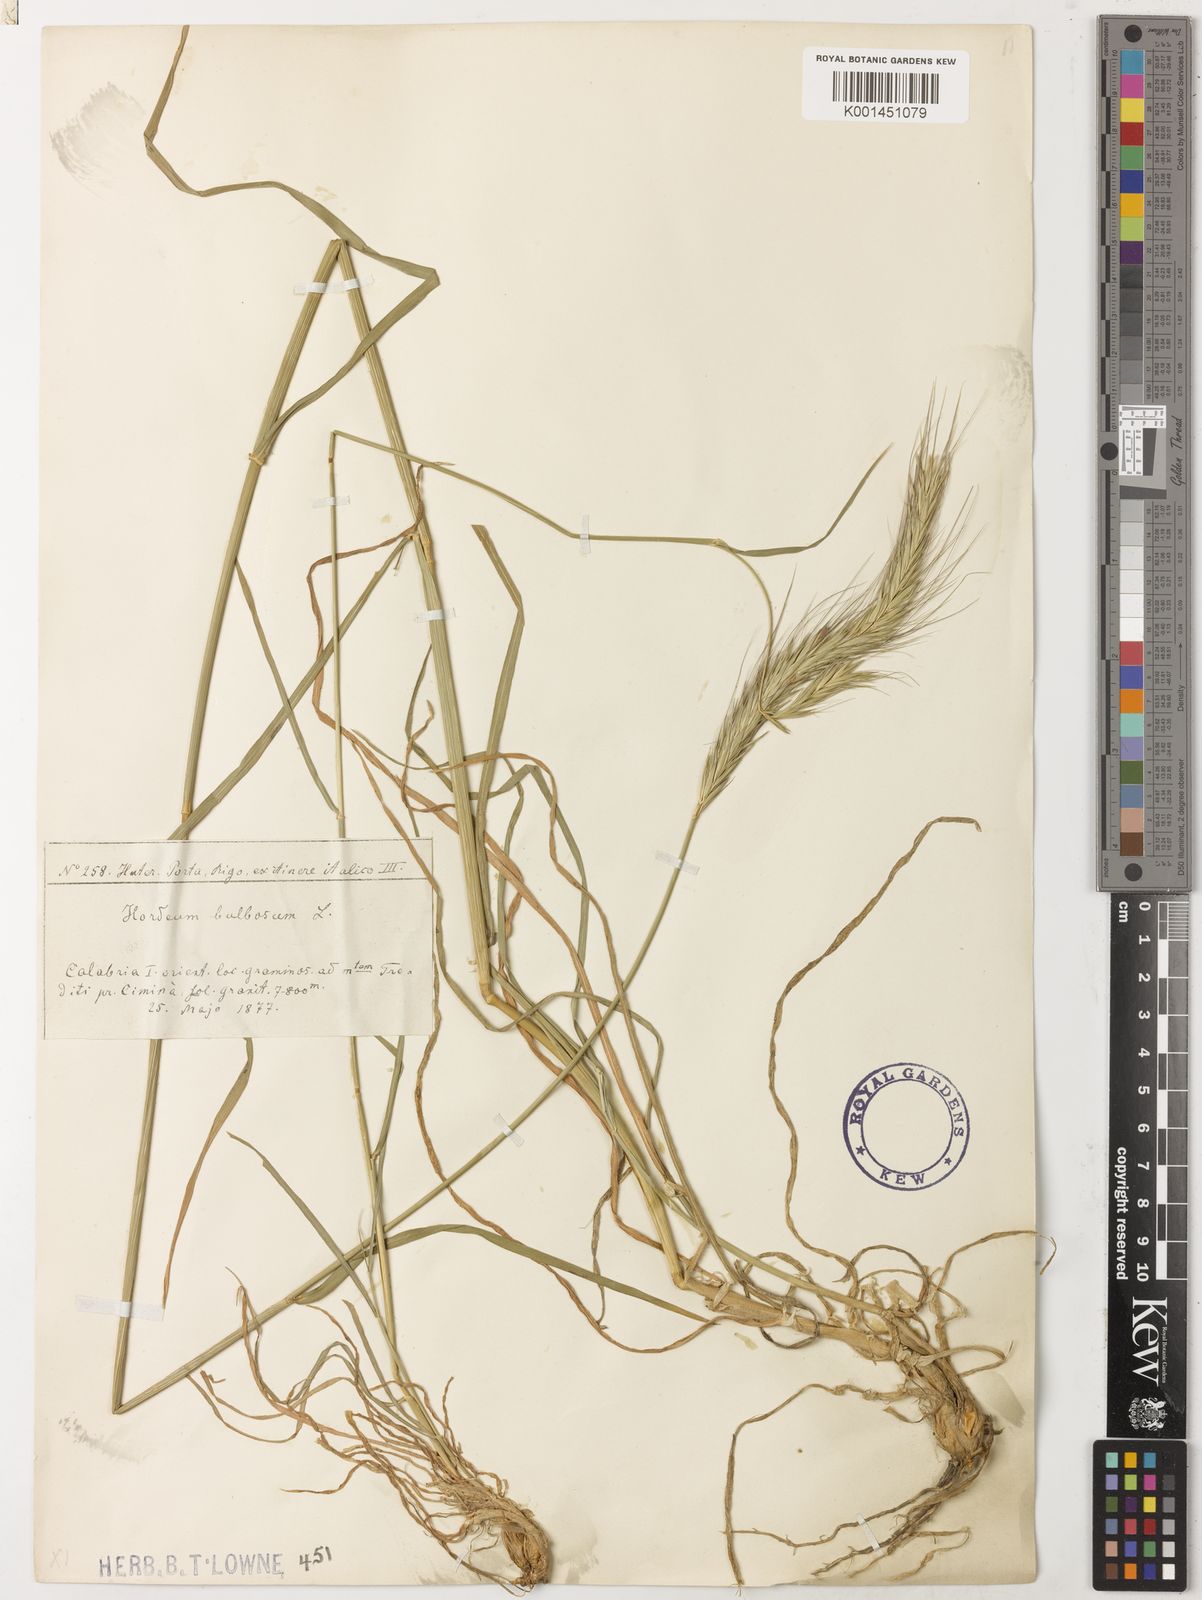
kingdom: Plantae
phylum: Tracheophyta
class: Liliopsida
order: Poales
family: Poaceae
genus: Hordeum
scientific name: Hordeum bulbosum
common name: Bulbous barley
